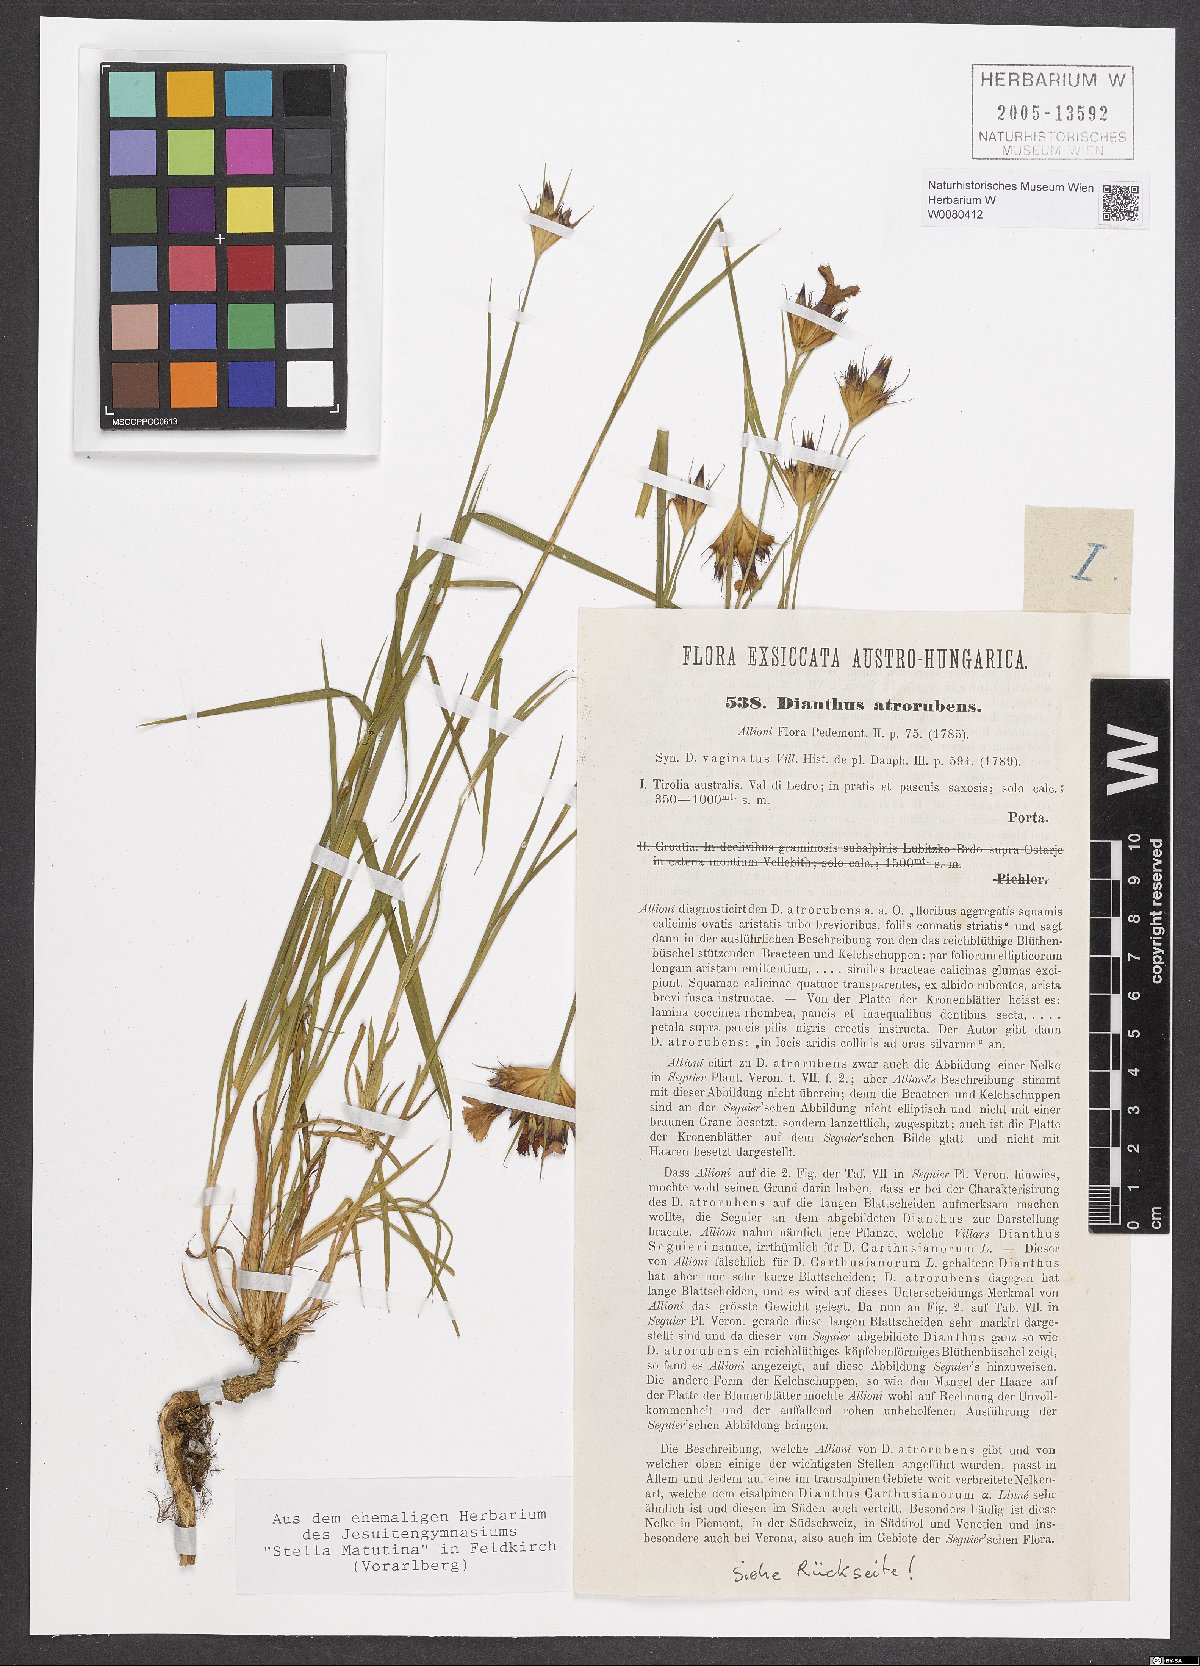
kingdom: Plantae
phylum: Tracheophyta
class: Magnoliopsida
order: Caryophyllales
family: Caryophyllaceae
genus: Dianthus
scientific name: Dianthus carthusianorum
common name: Carthusian pink
